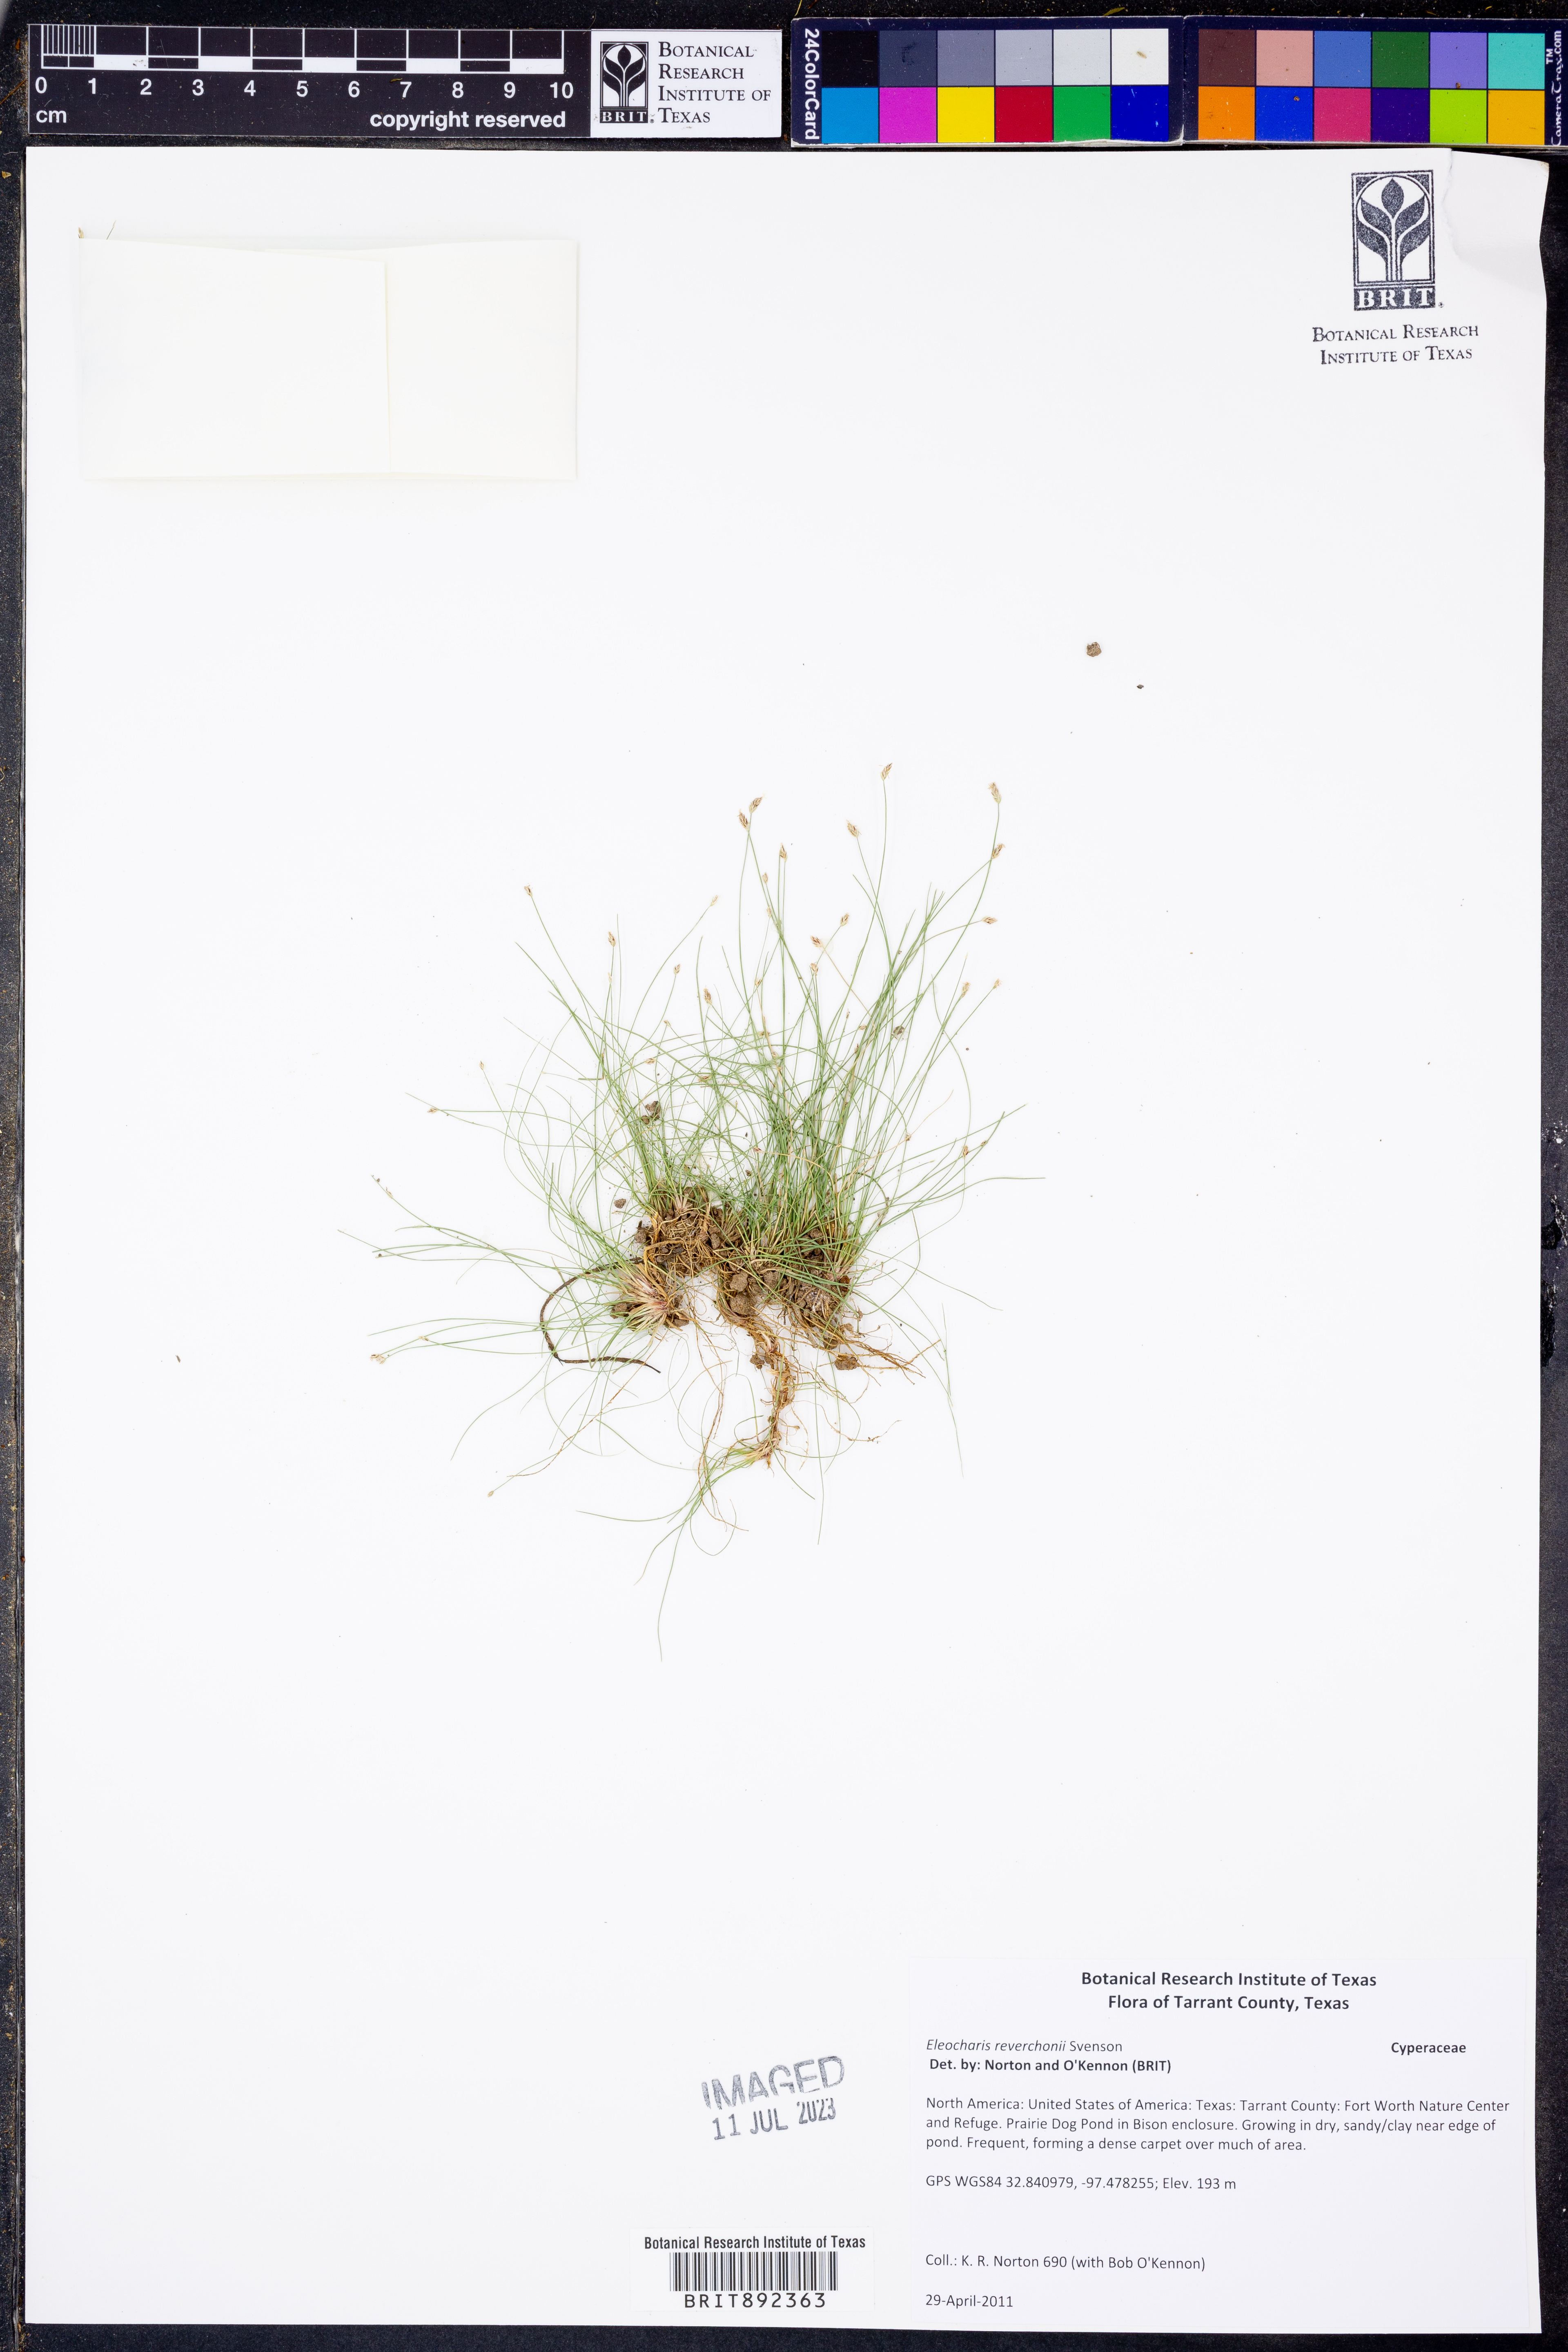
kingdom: Plantae
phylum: Tracheophyta
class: Liliopsida
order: Poales
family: Cyperaceae
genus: Eleocharis
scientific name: Eleocharis reverchonii
